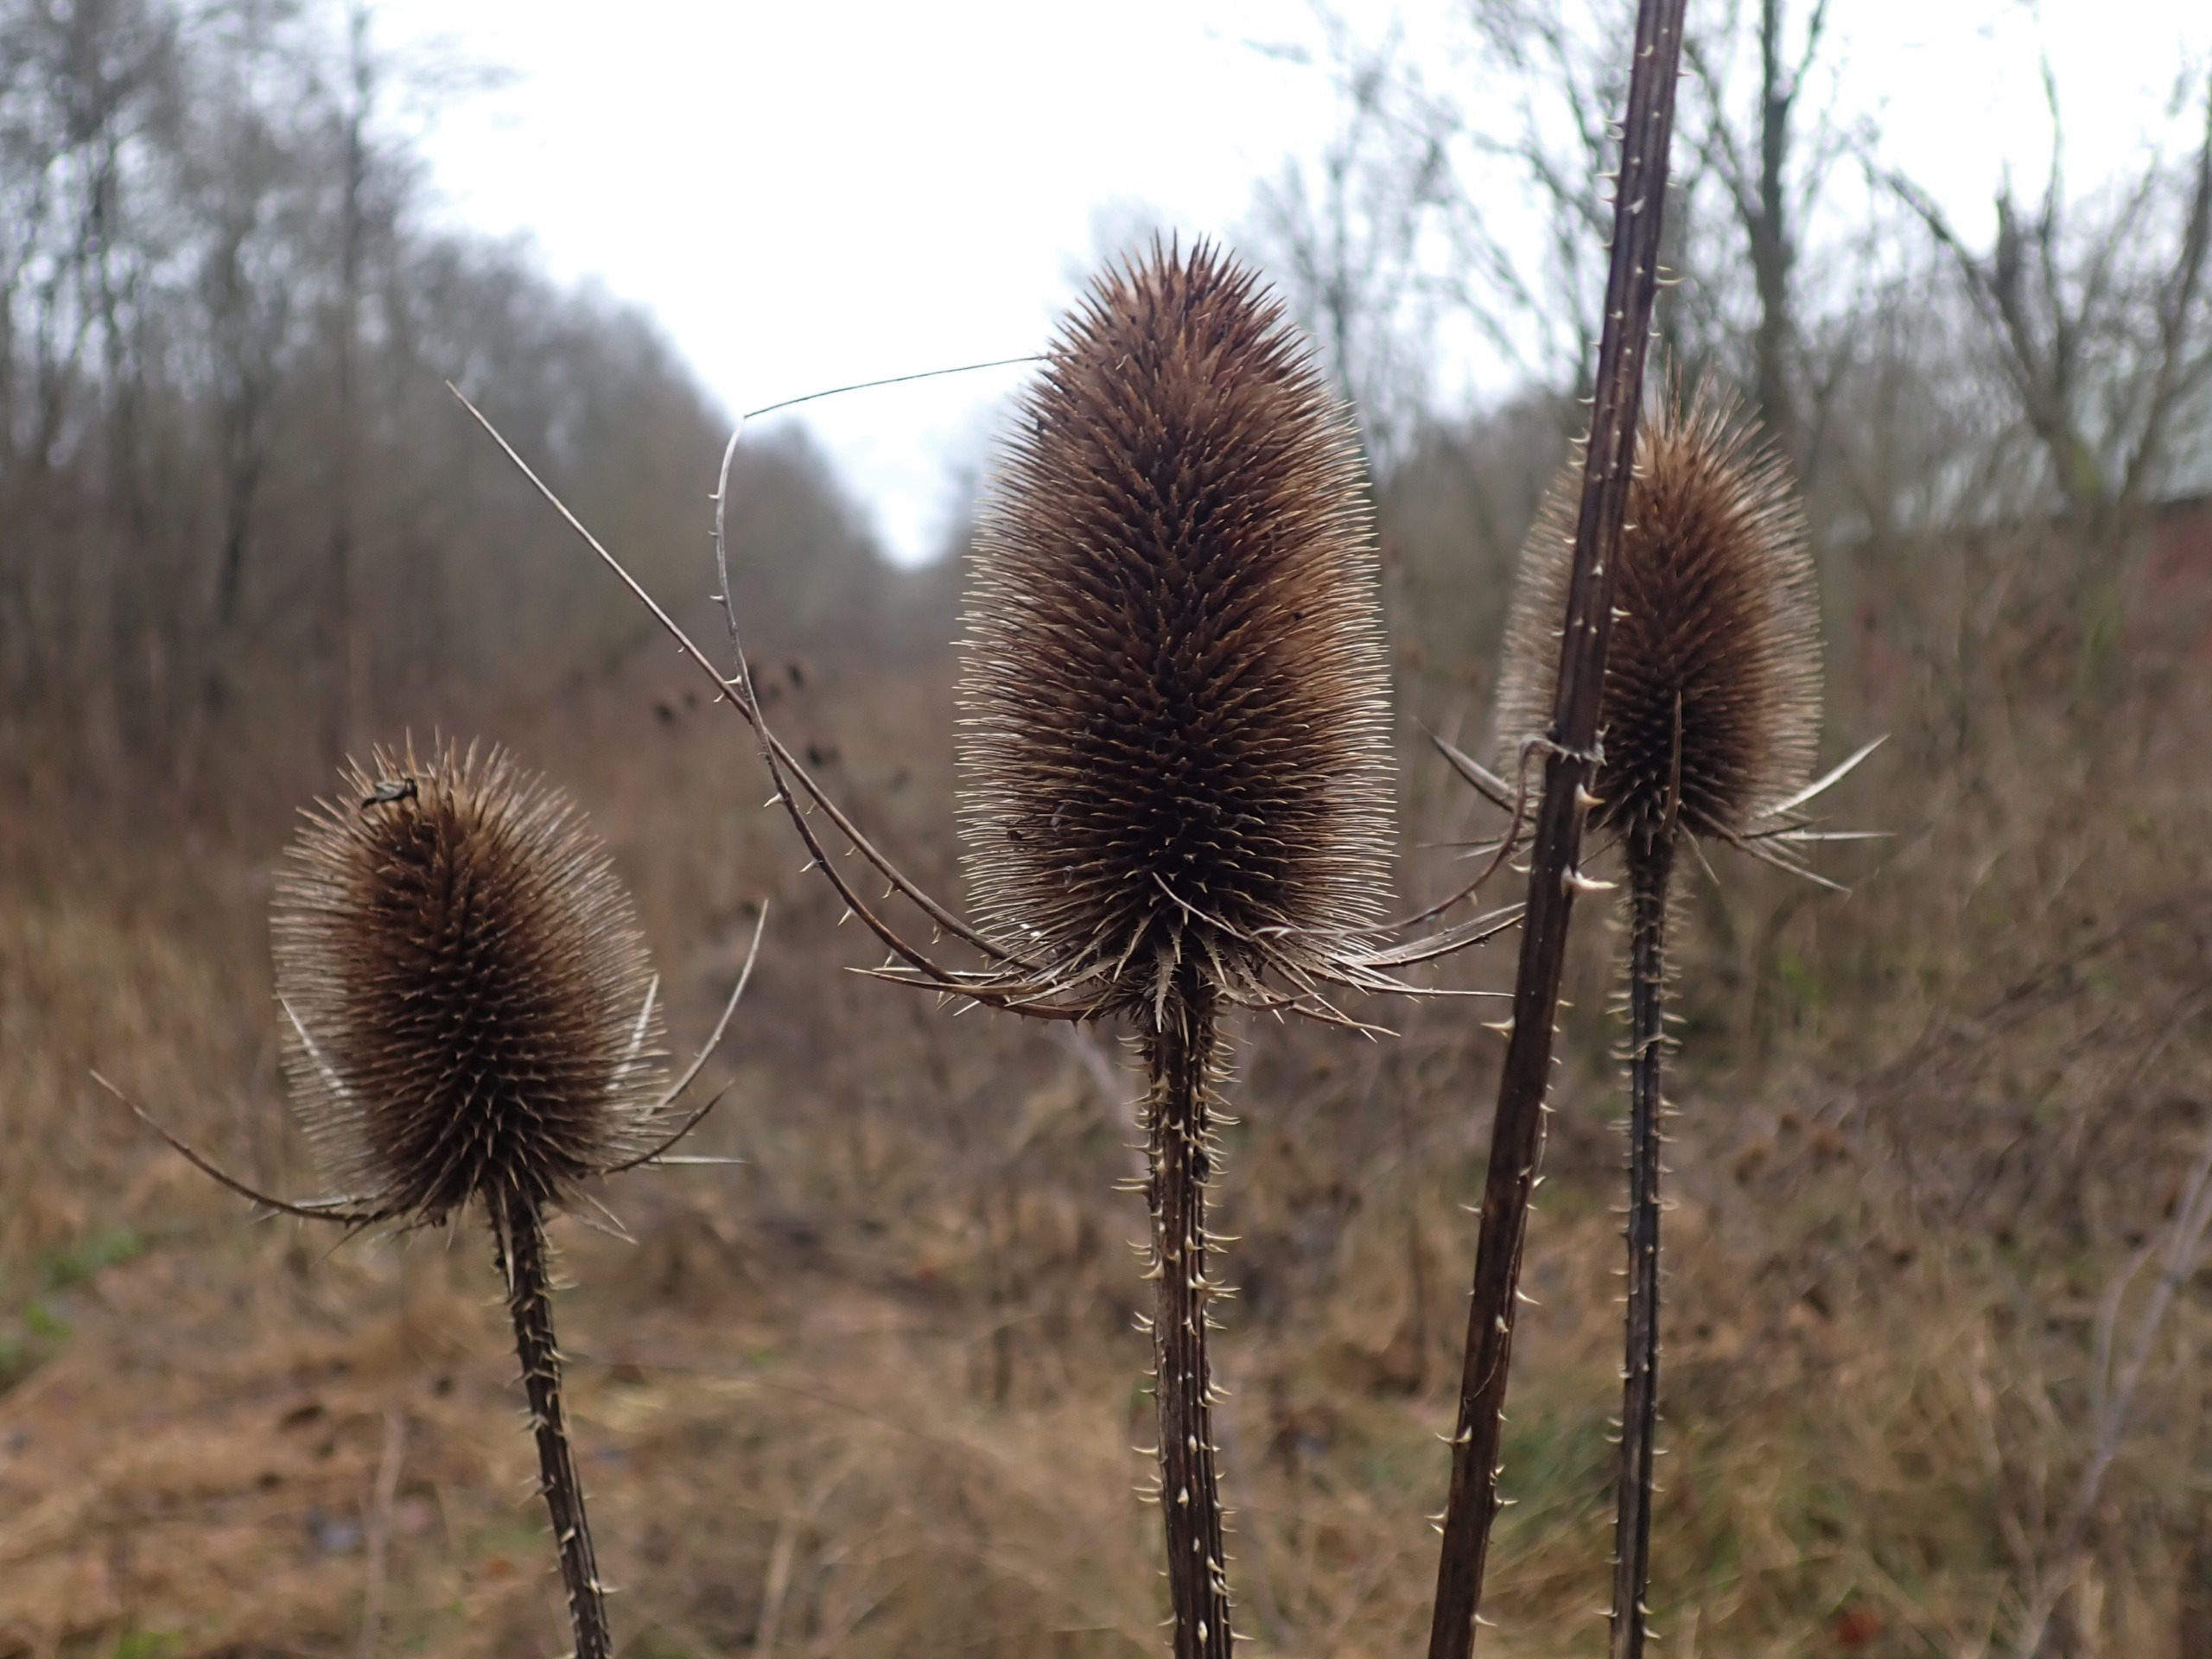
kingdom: Plantae
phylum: Tracheophyta
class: Magnoliopsida
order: Dipsacales
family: Caprifoliaceae
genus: Dipsacus
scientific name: Dipsacus fullonum
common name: Gærde-kartebolle
